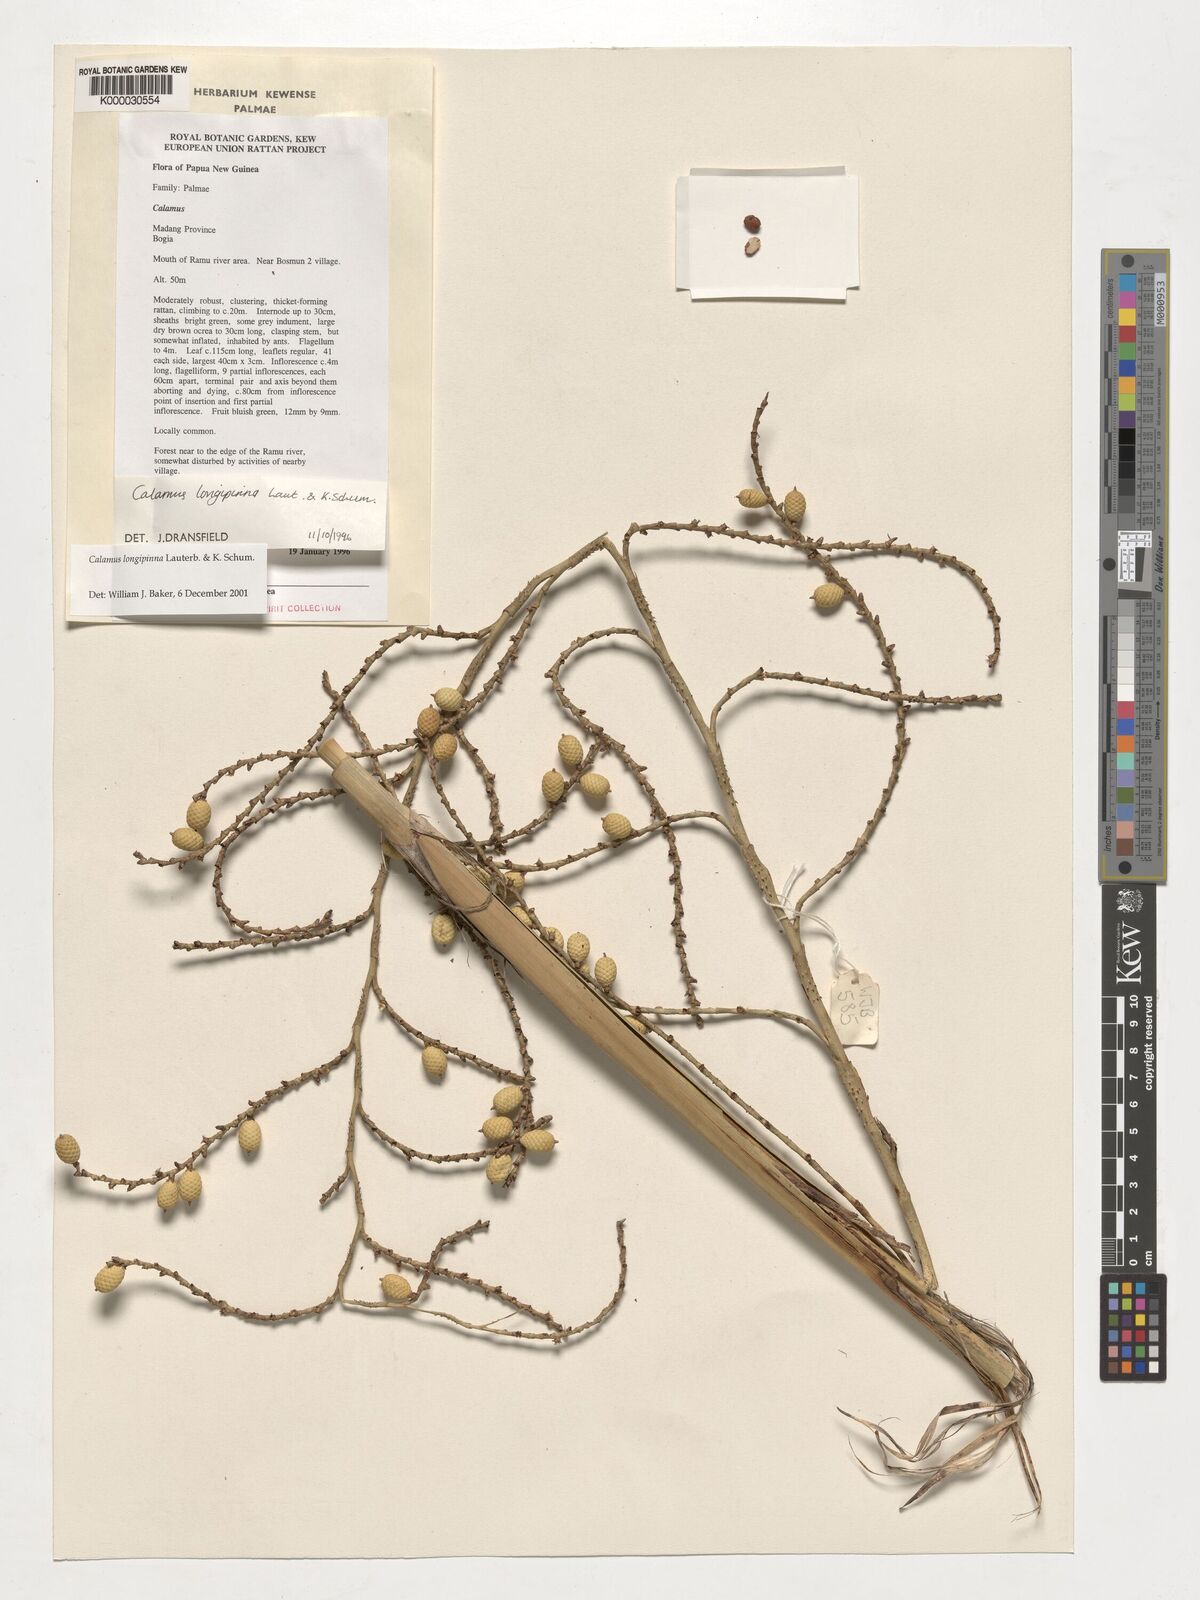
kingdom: Plantae
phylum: Tracheophyta
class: Liliopsida
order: Arecales
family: Arecaceae
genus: Calamus
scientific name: Calamus longipinna
